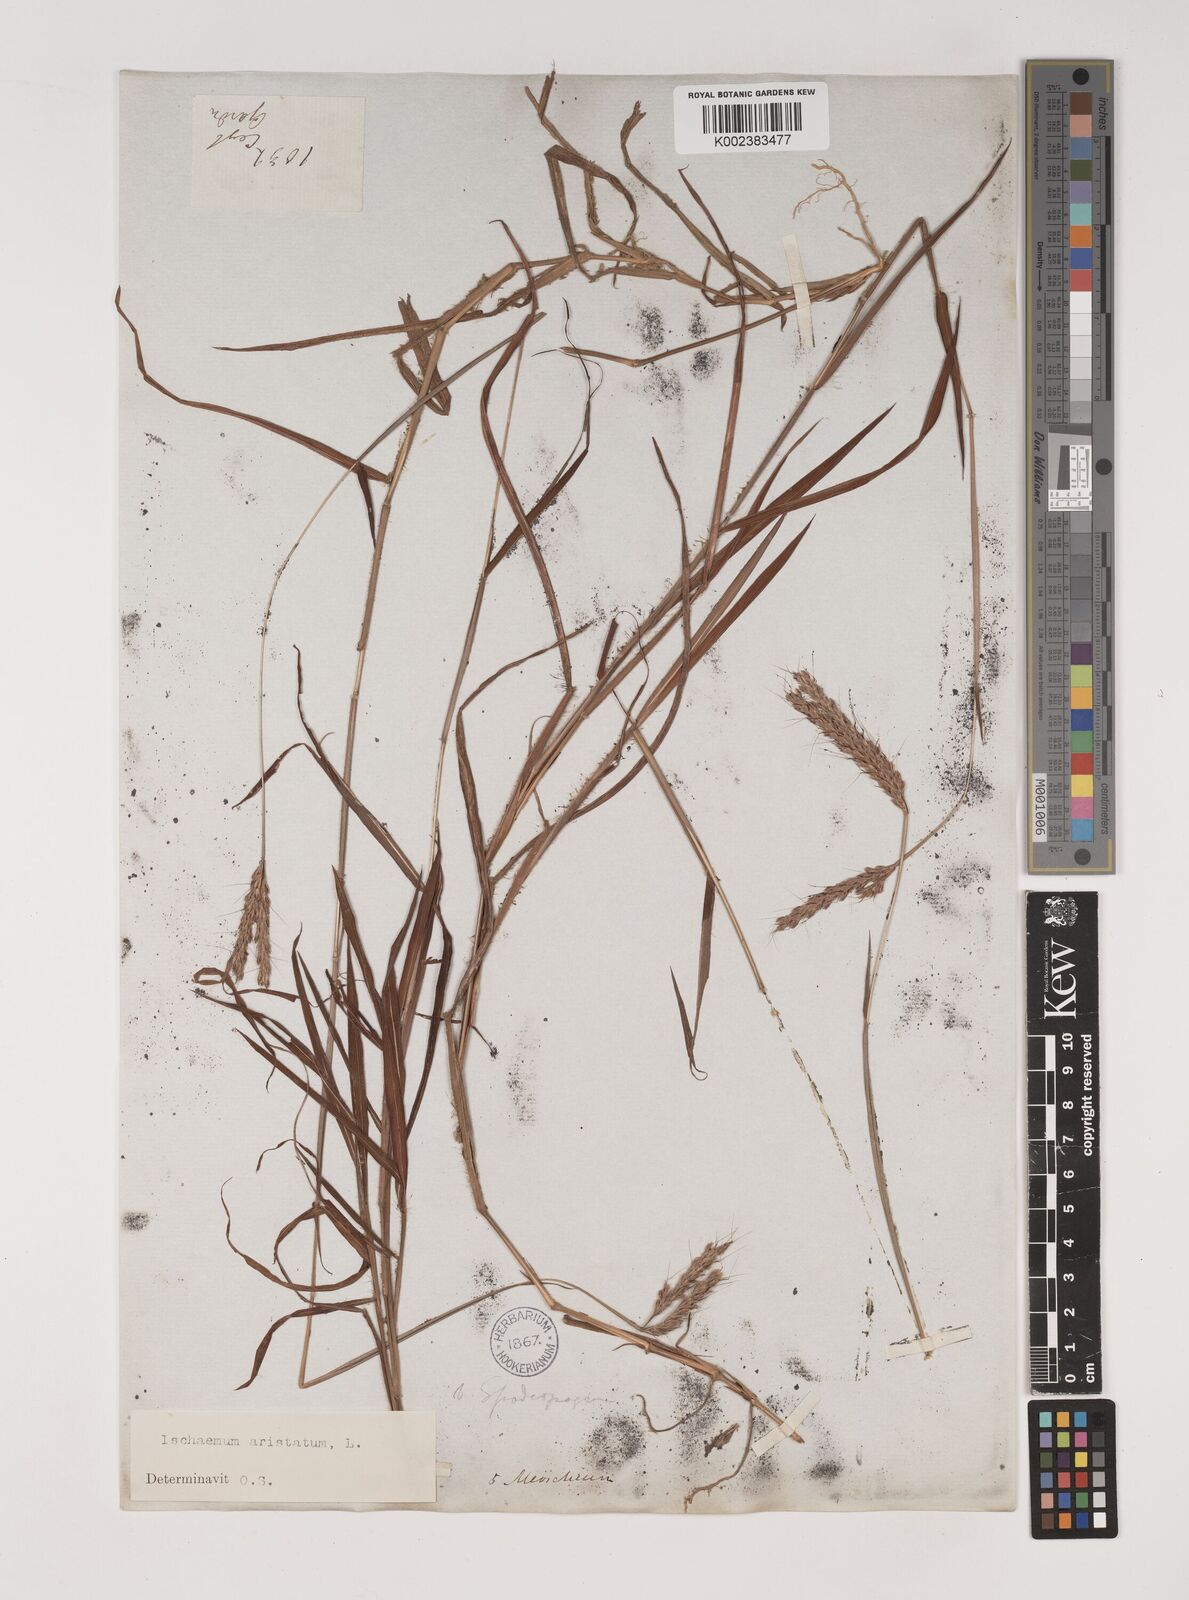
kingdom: Plantae
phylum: Tracheophyta
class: Liliopsida
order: Poales
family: Poaceae
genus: Polytrias
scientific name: Polytrias indica
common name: Indian murainagrass
